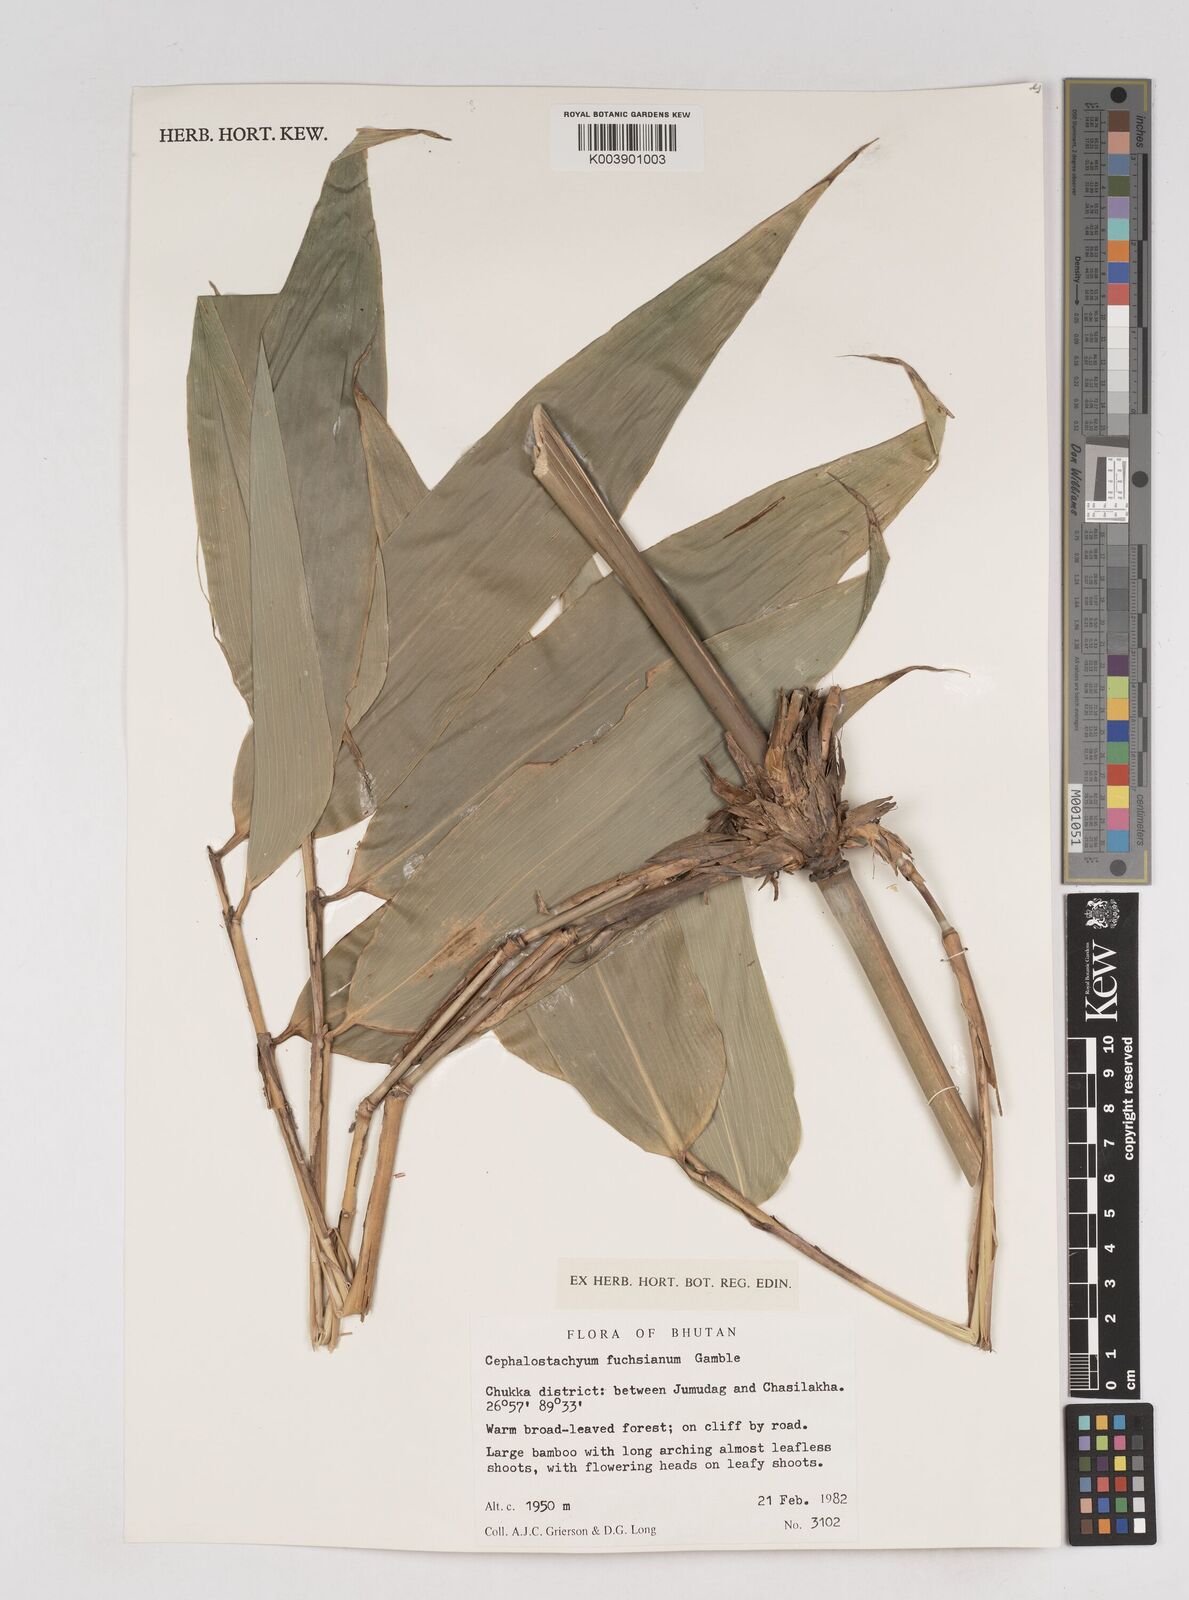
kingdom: Plantae
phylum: Tracheophyta
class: Liliopsida
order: Poales
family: Poaceae
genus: Cephalostachyum
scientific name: Cephalostachyum latifolium
